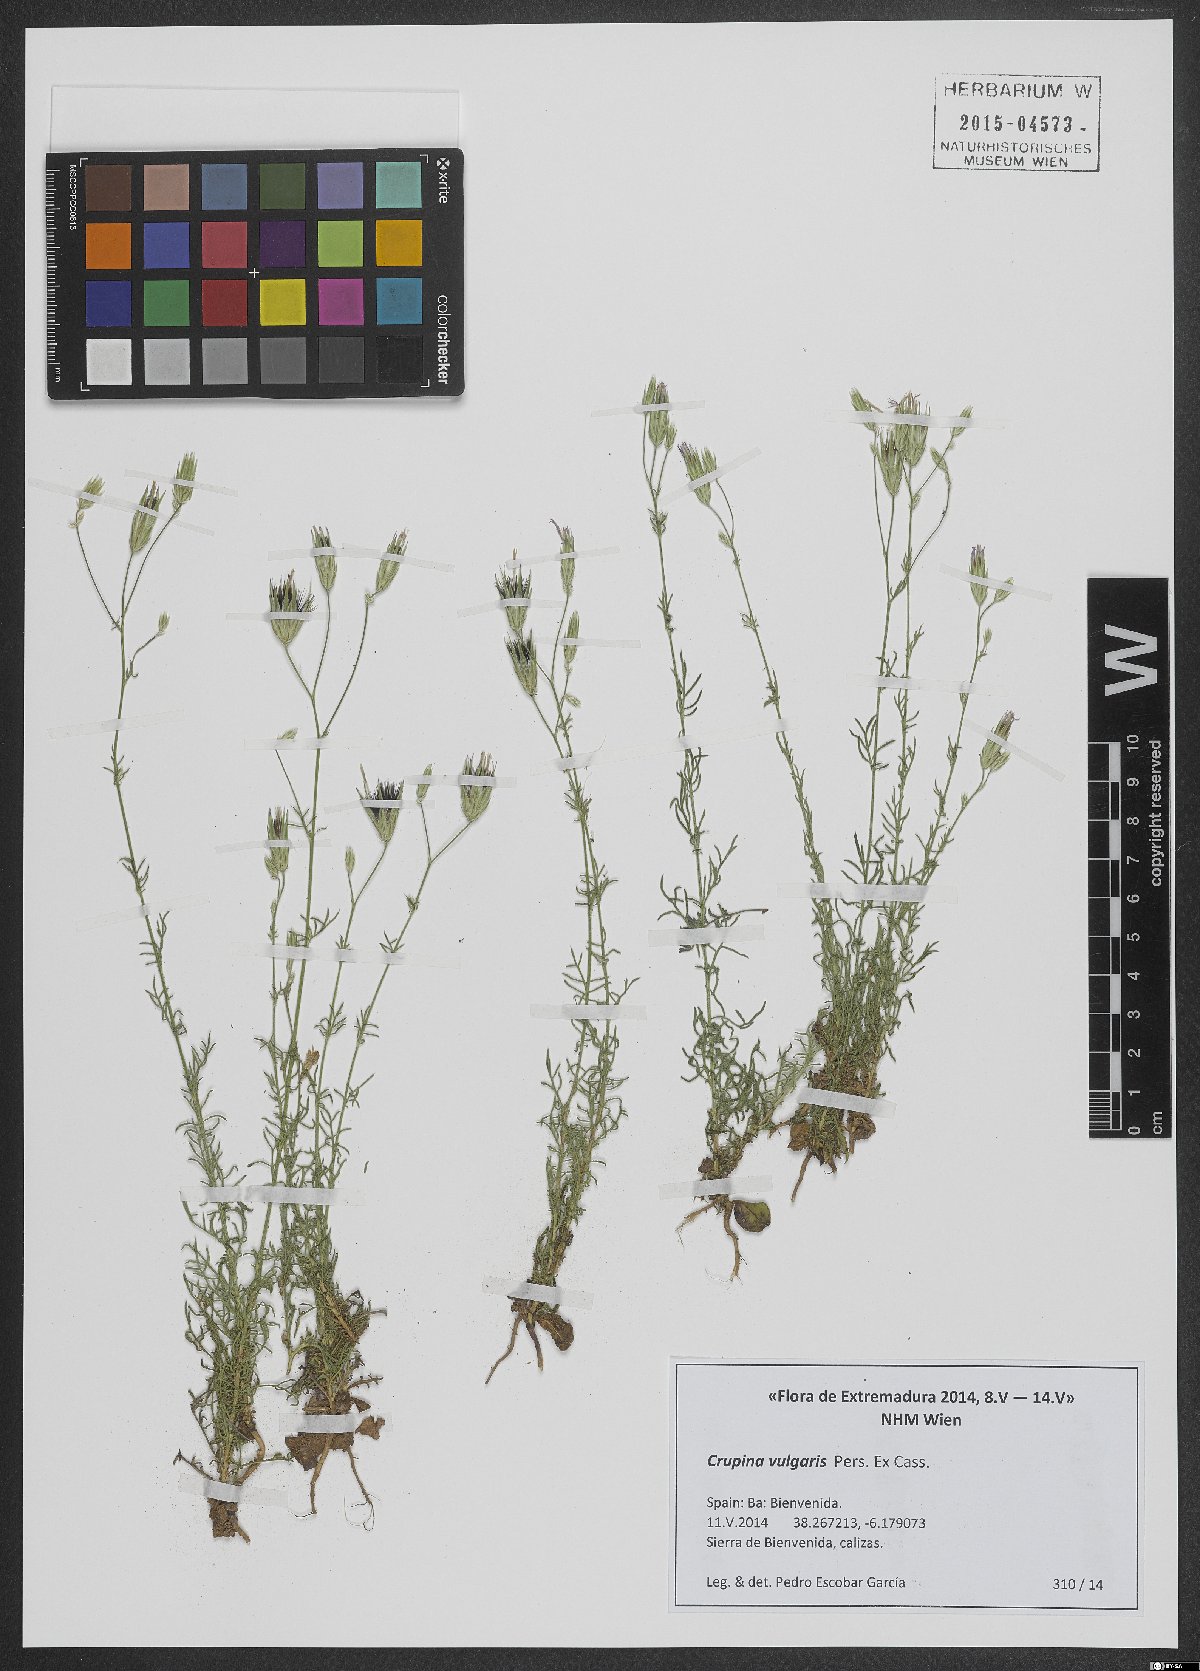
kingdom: Plantae
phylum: Tracheophyta
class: Magnoliopsida
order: Asterales
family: Asteraceae
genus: Crupina
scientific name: Crupina vulgaris
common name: Common crupina
